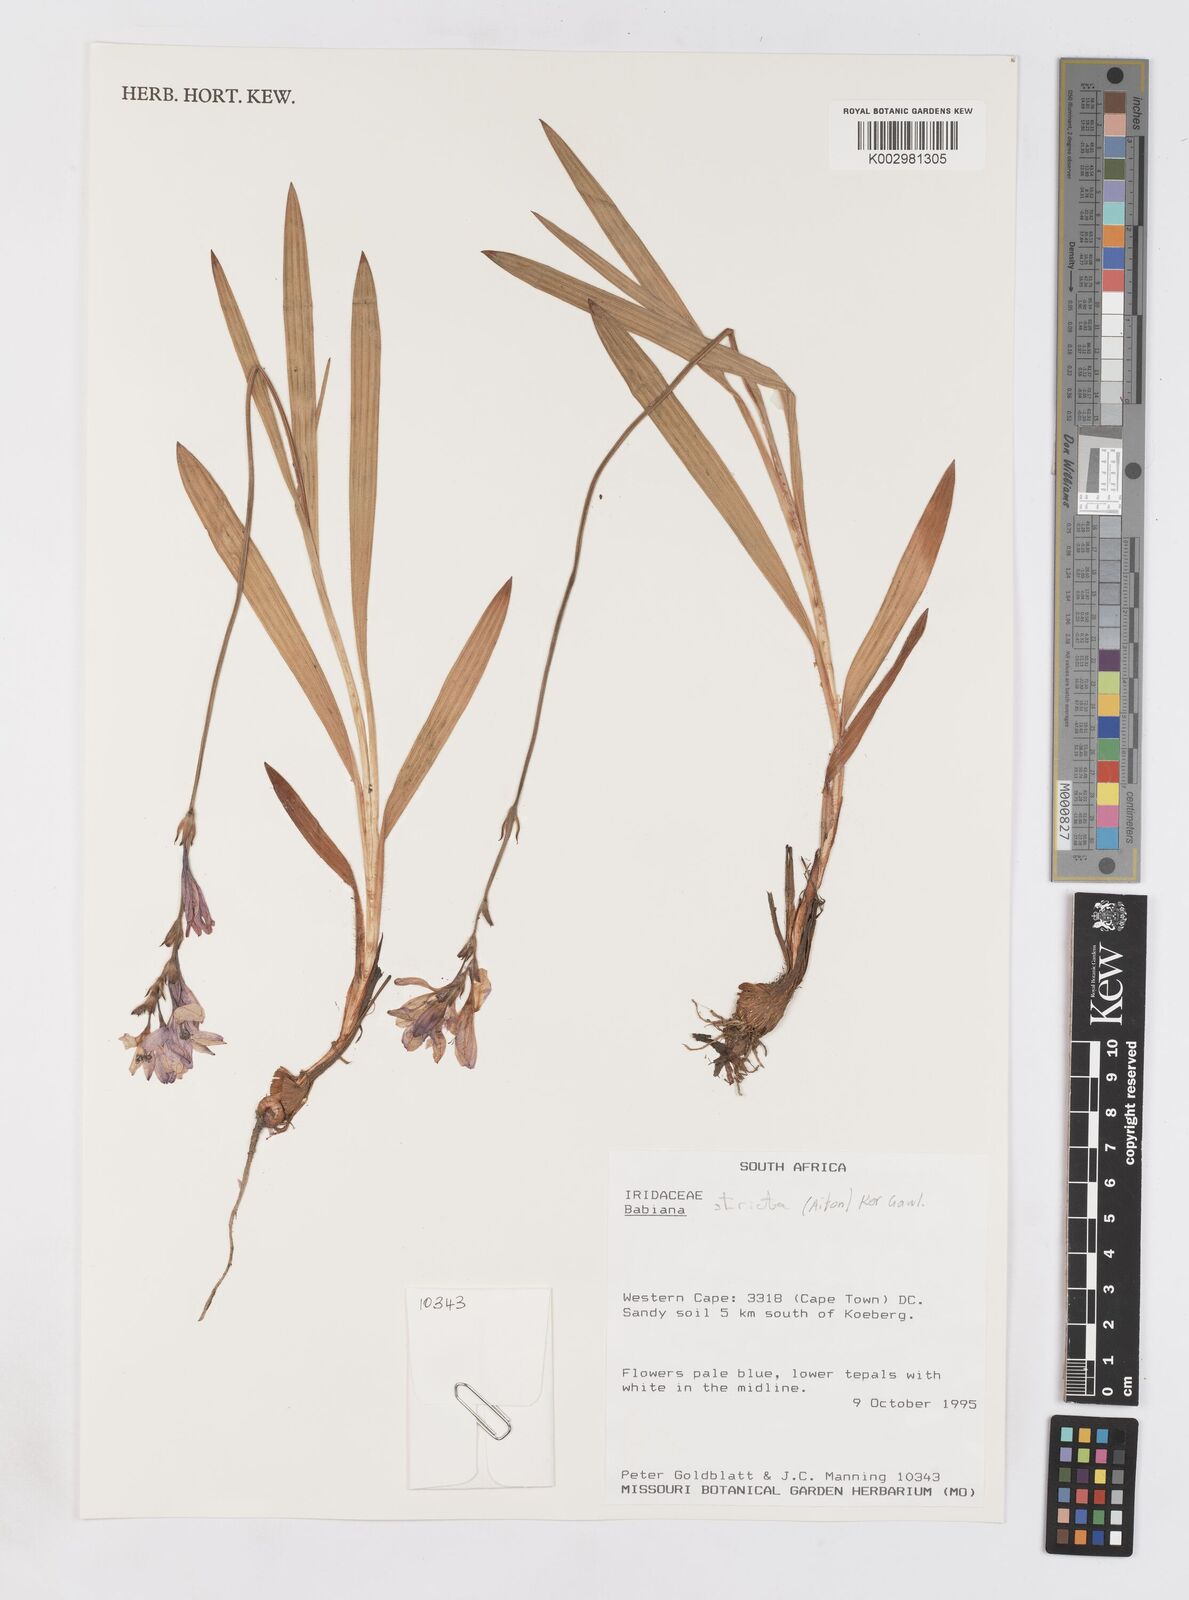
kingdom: Plantae
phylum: Tracheophyta
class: Liliopsida
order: Asparagales
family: Iridaceae
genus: Babiana
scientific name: Babiana nervosa
